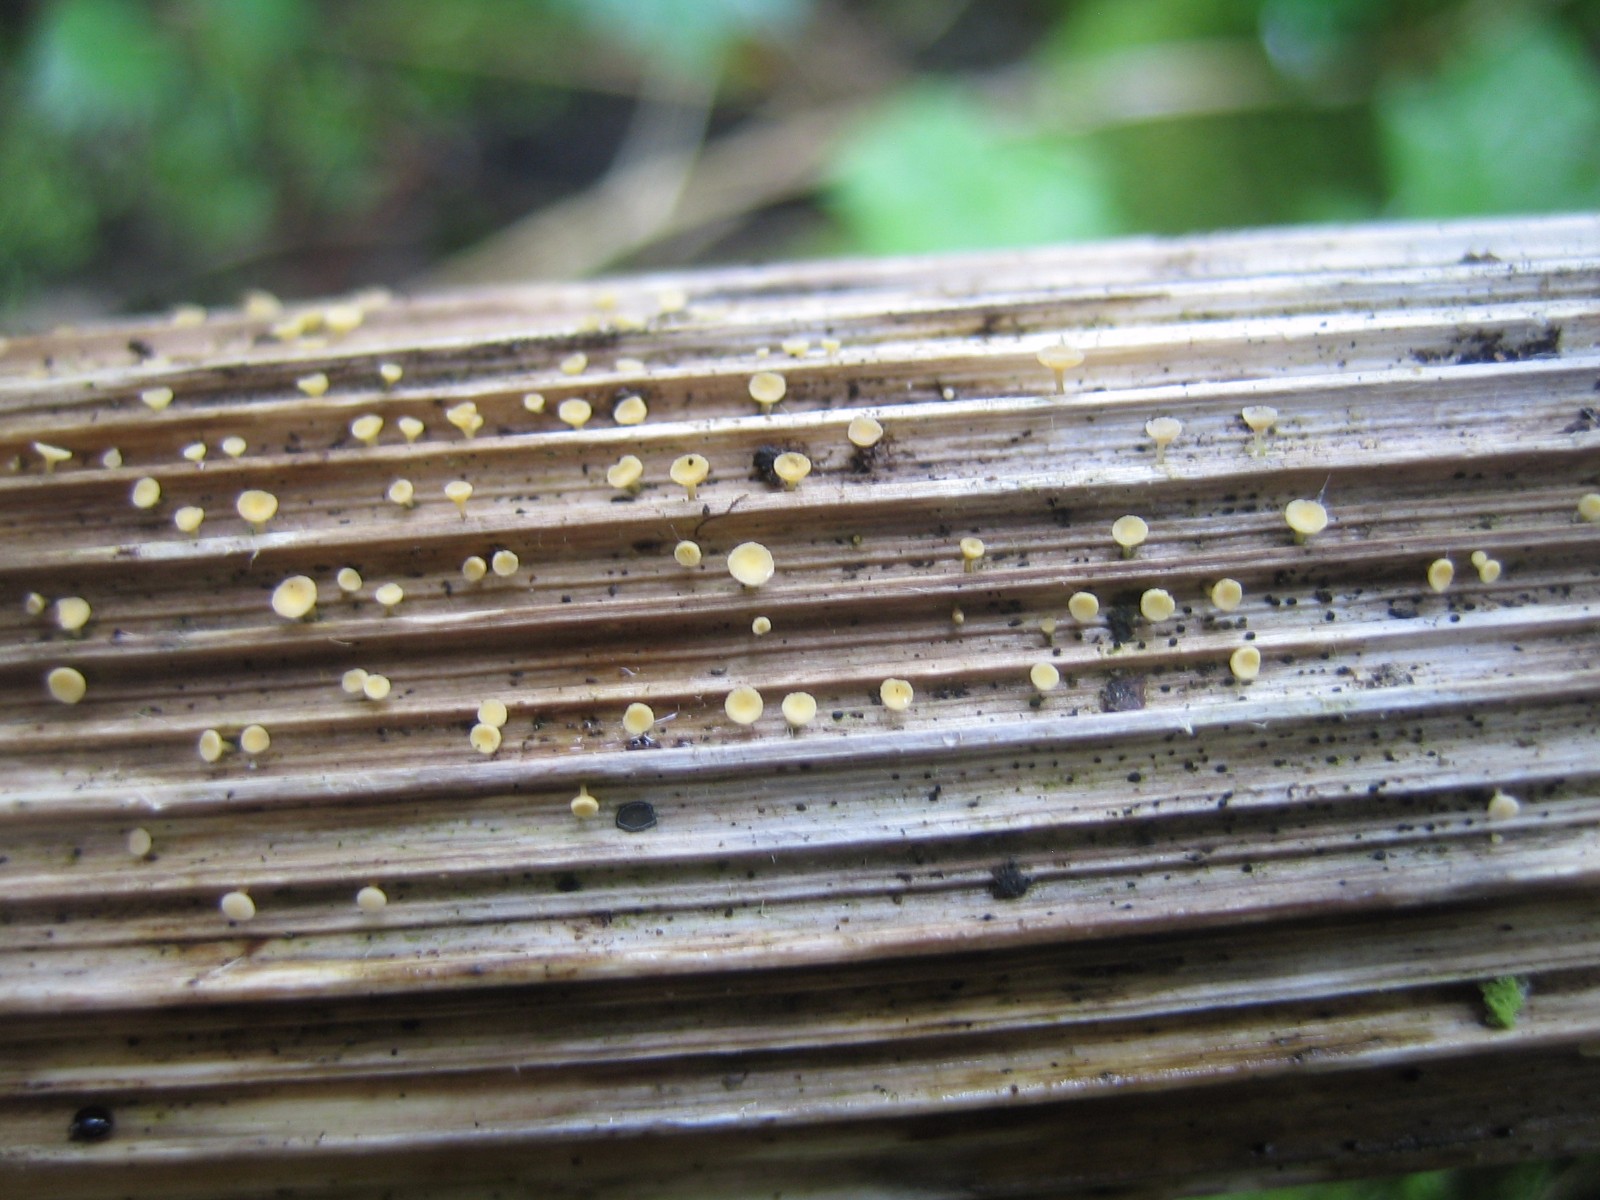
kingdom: Fungi
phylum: Ascomycota
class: Leotiomycetes
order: Helotiales
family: Helotiaceae
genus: Cyathicula
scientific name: Cyathicula cyathoidea
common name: pokal-stilkskive
